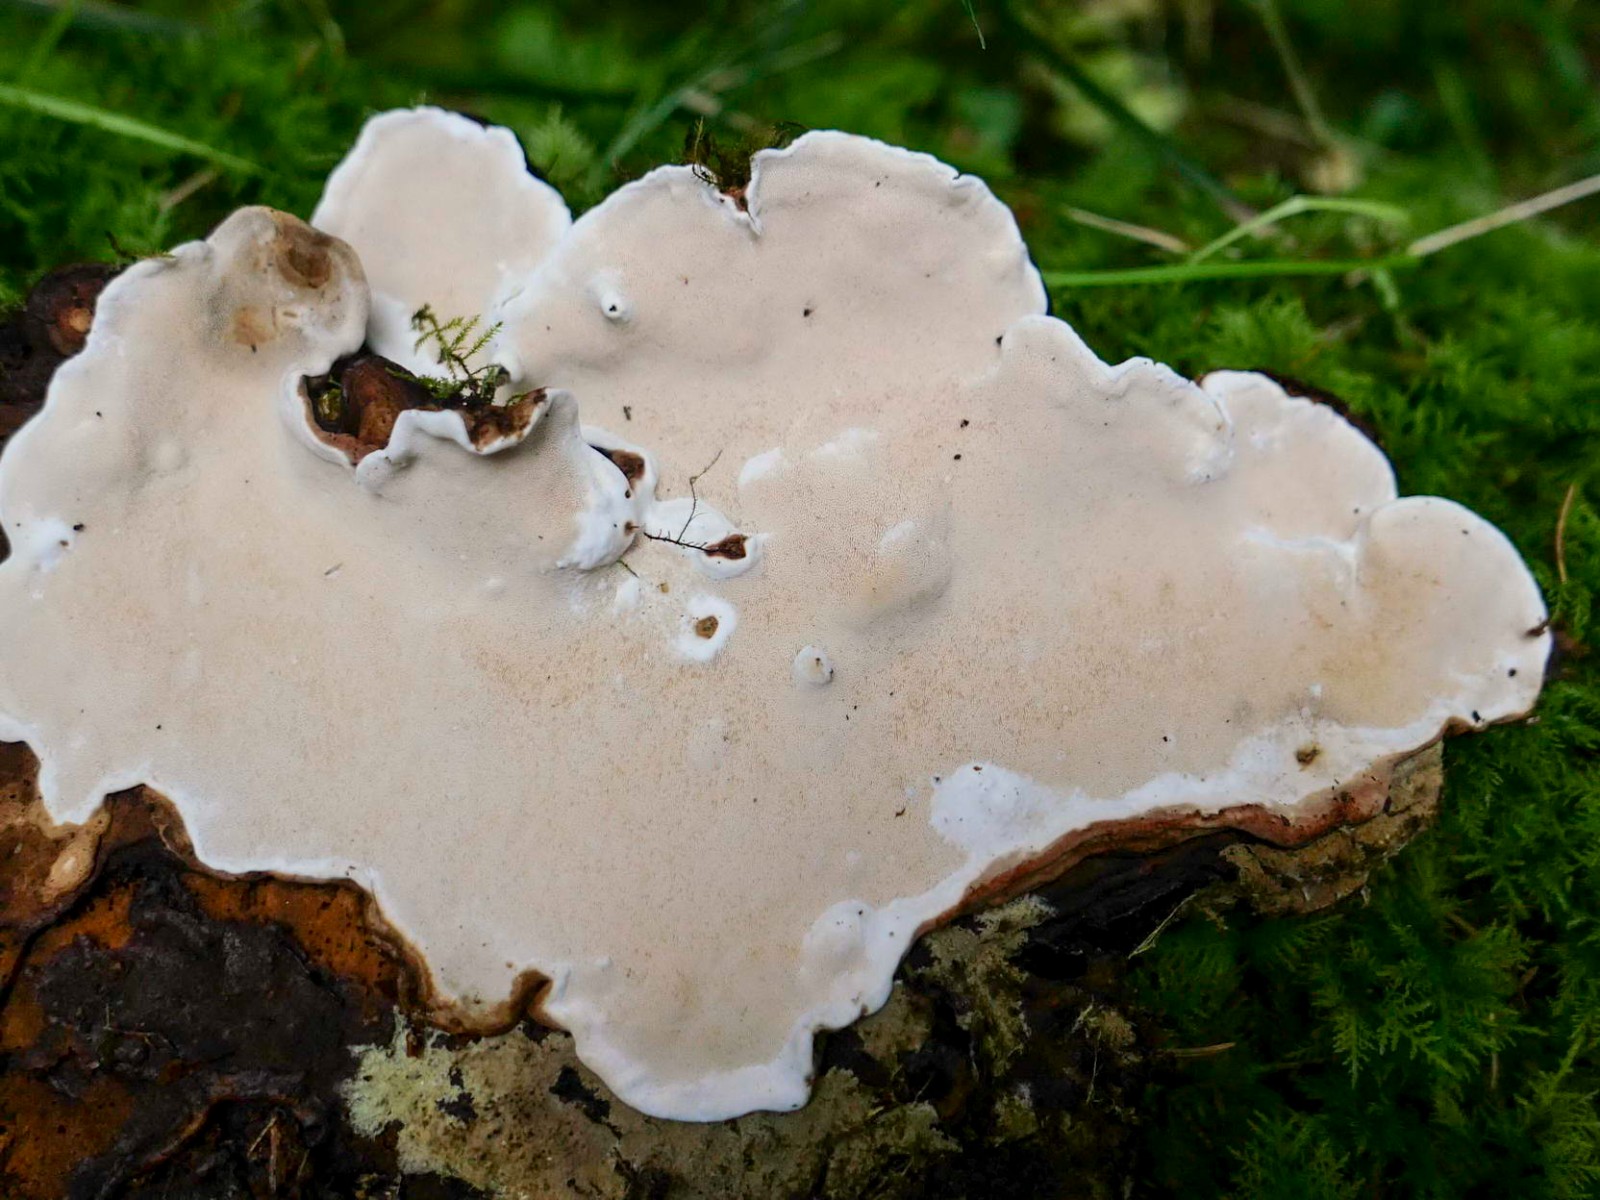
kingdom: Fungi
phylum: Basidiomycota
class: Agaricomycetes
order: Russulales
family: Bondarzewiaceae
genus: Heterobasidion
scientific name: Heterobasidion parviporum
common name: småporet rodfordærver
